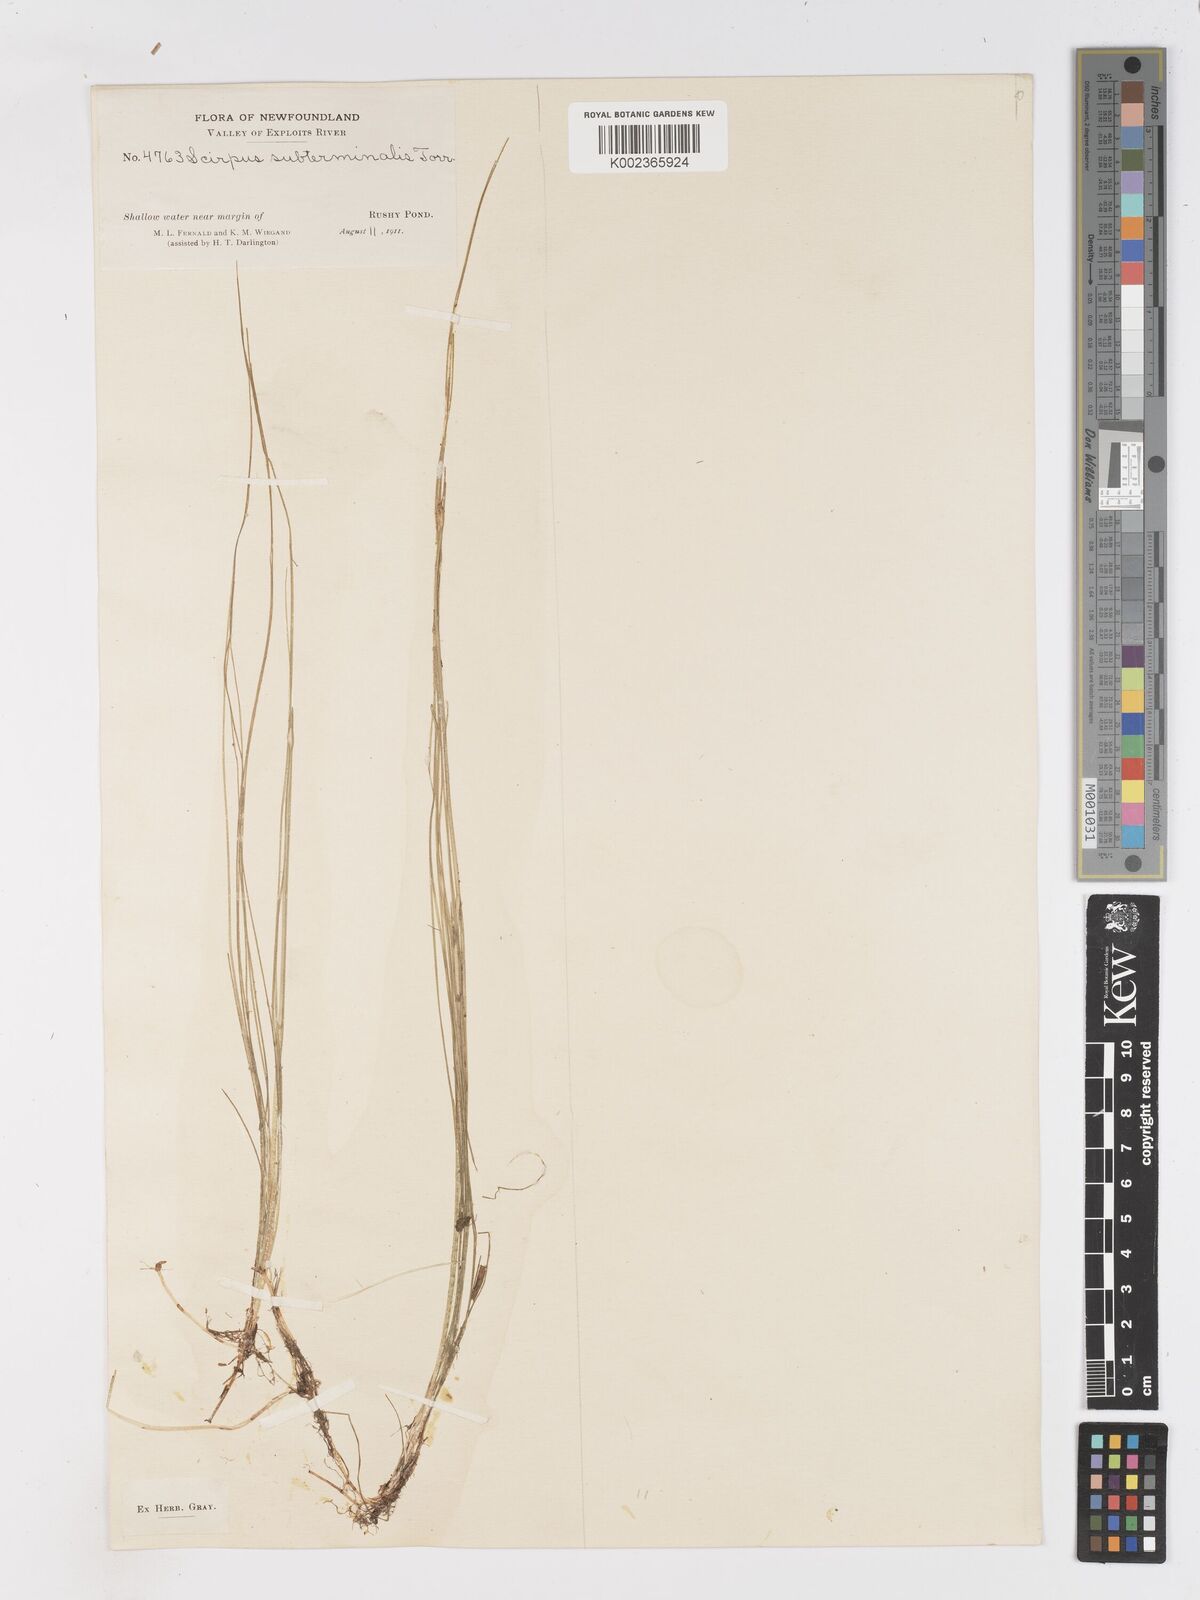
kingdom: Plantae
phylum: Tracheophyta
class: Liliopsida
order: Poales
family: Cyperaceae
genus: Schoenoplectus
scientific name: Schoenoplectus subterminalis
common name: Swaying bulrush
